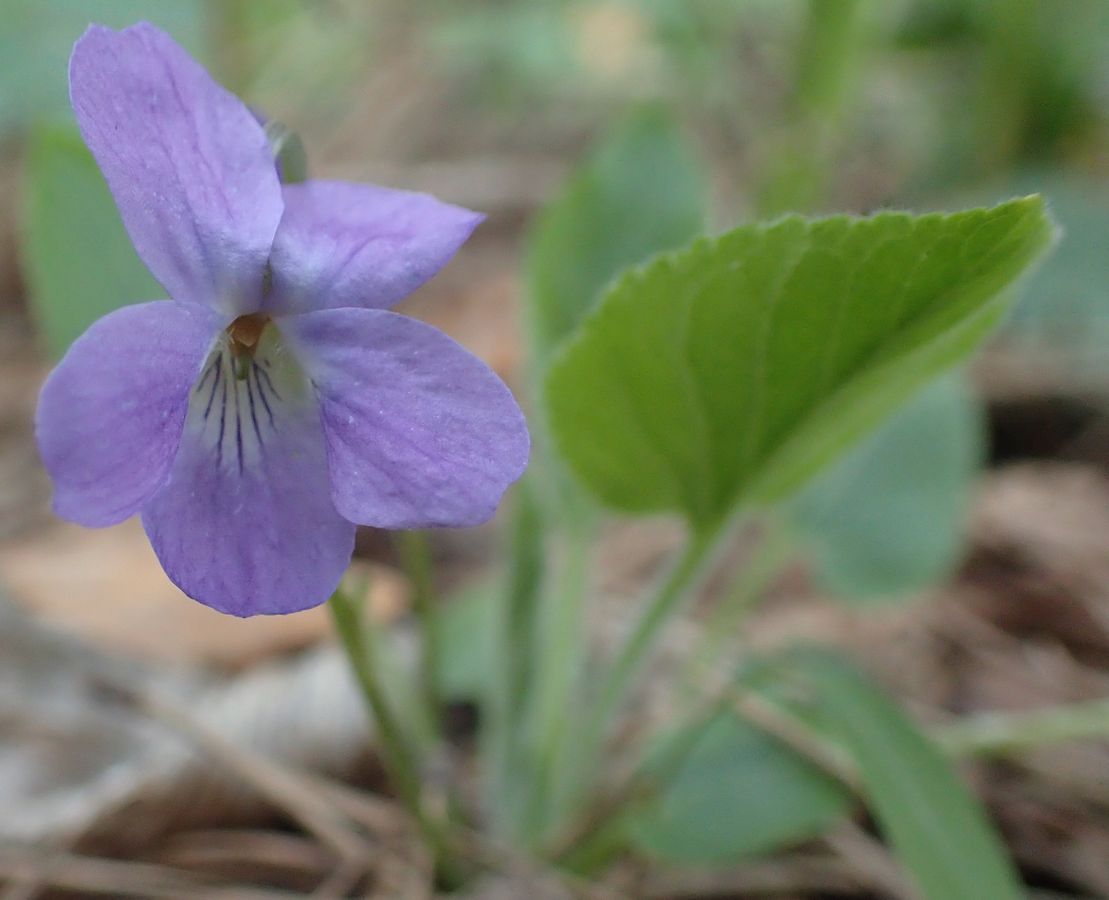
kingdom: Plantae
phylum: Tracheophyta
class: Magnoliopsida
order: Malpighiales
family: Violaceae
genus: Viola
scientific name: Viola collina
